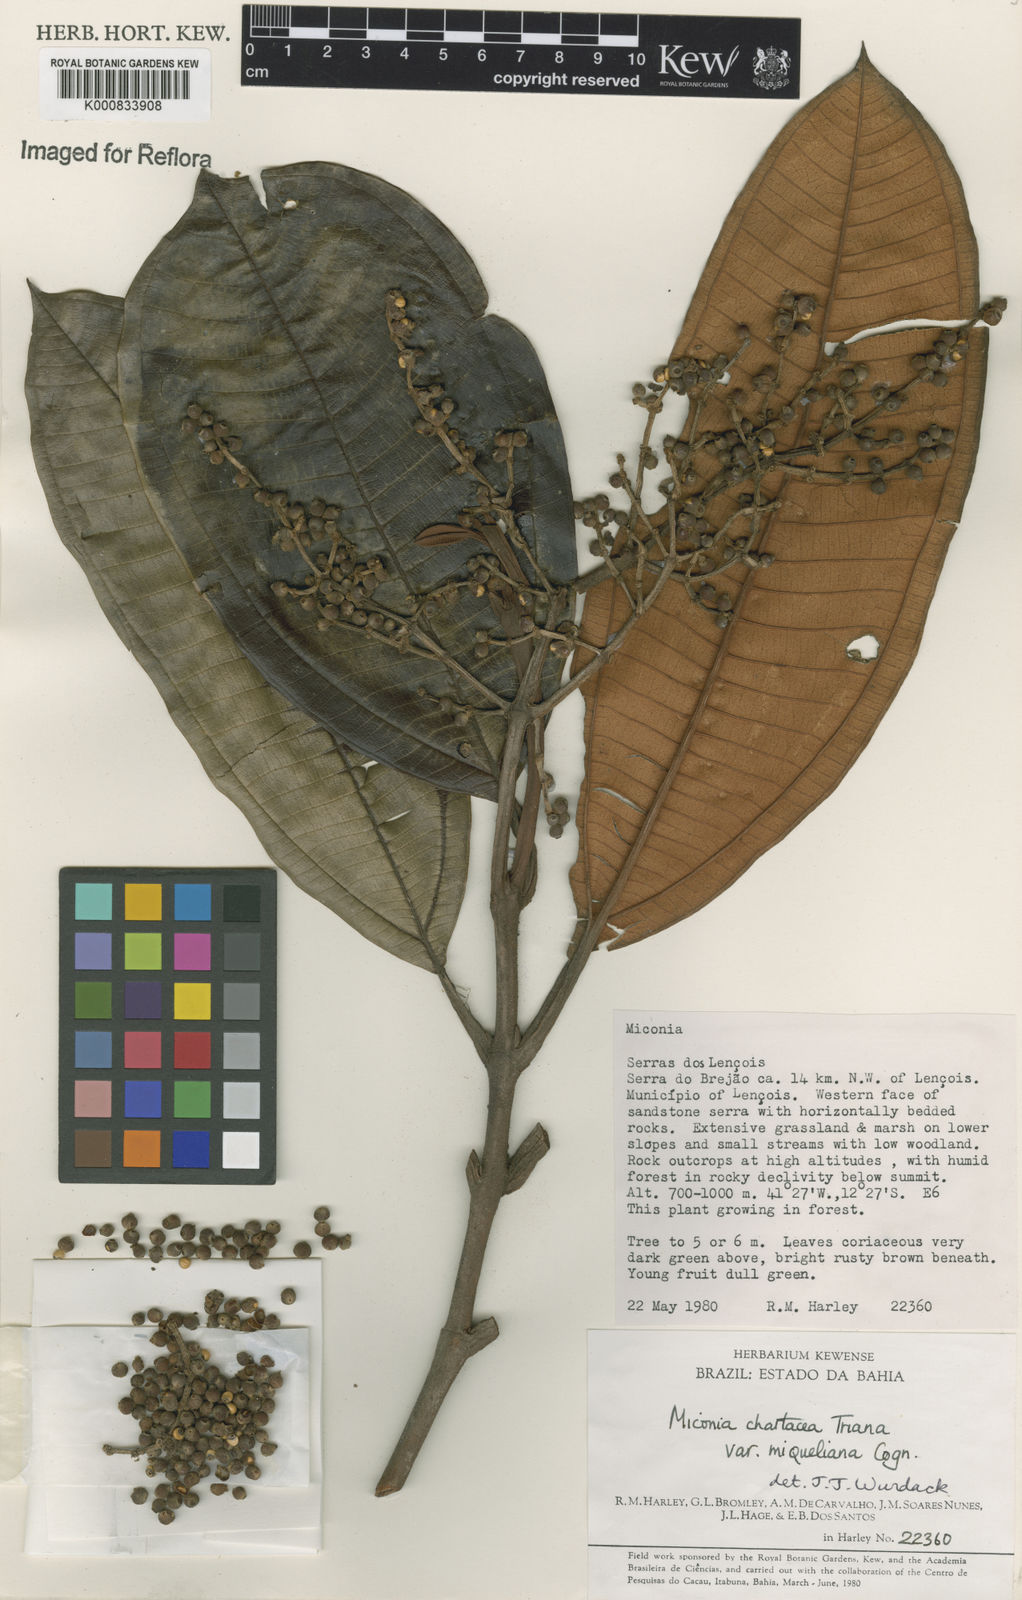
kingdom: Plantae
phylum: Tracheophyta
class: Magnoliopsida
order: Myrtales
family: Melastomataceae
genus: Miconia
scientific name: Miconia chartacea
